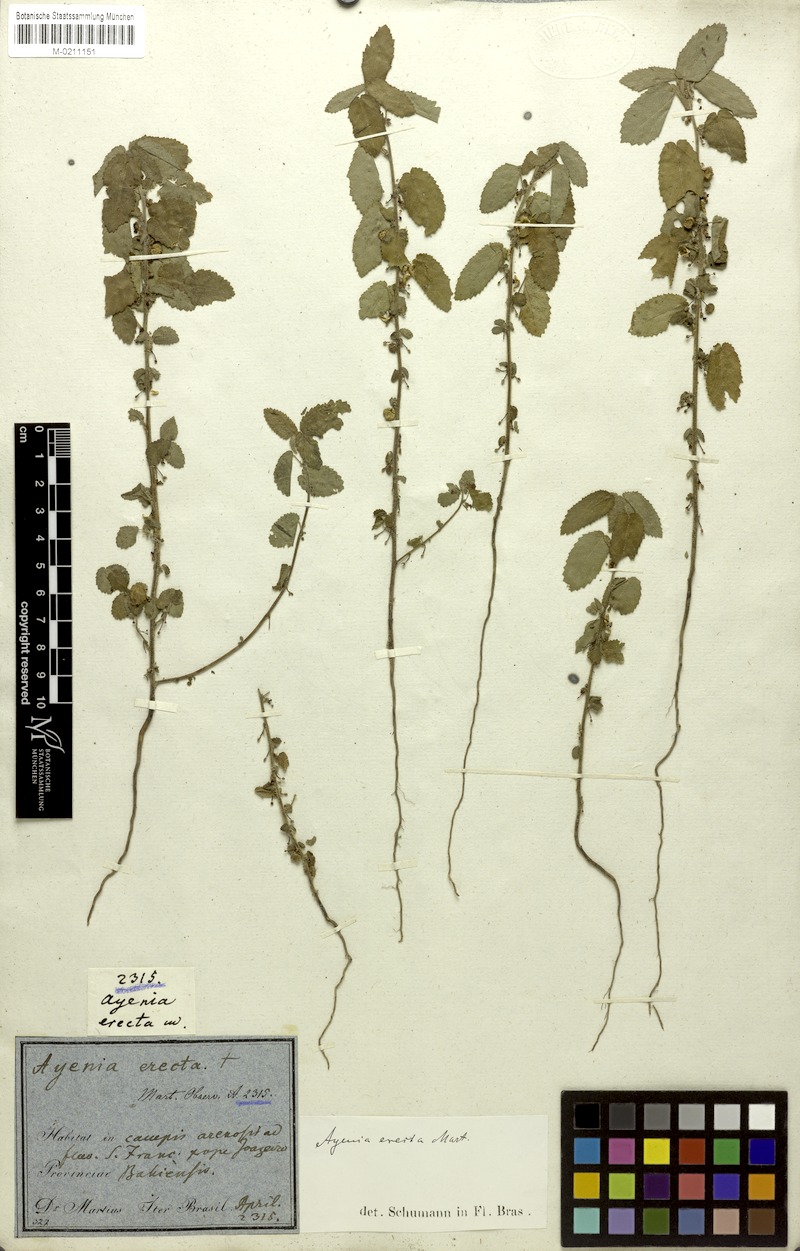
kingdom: Plantae
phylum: Tracheophyta
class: Magnoliopsida
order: Malvales
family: Malvaceae
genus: Ayenia
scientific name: Ayenia erecta
